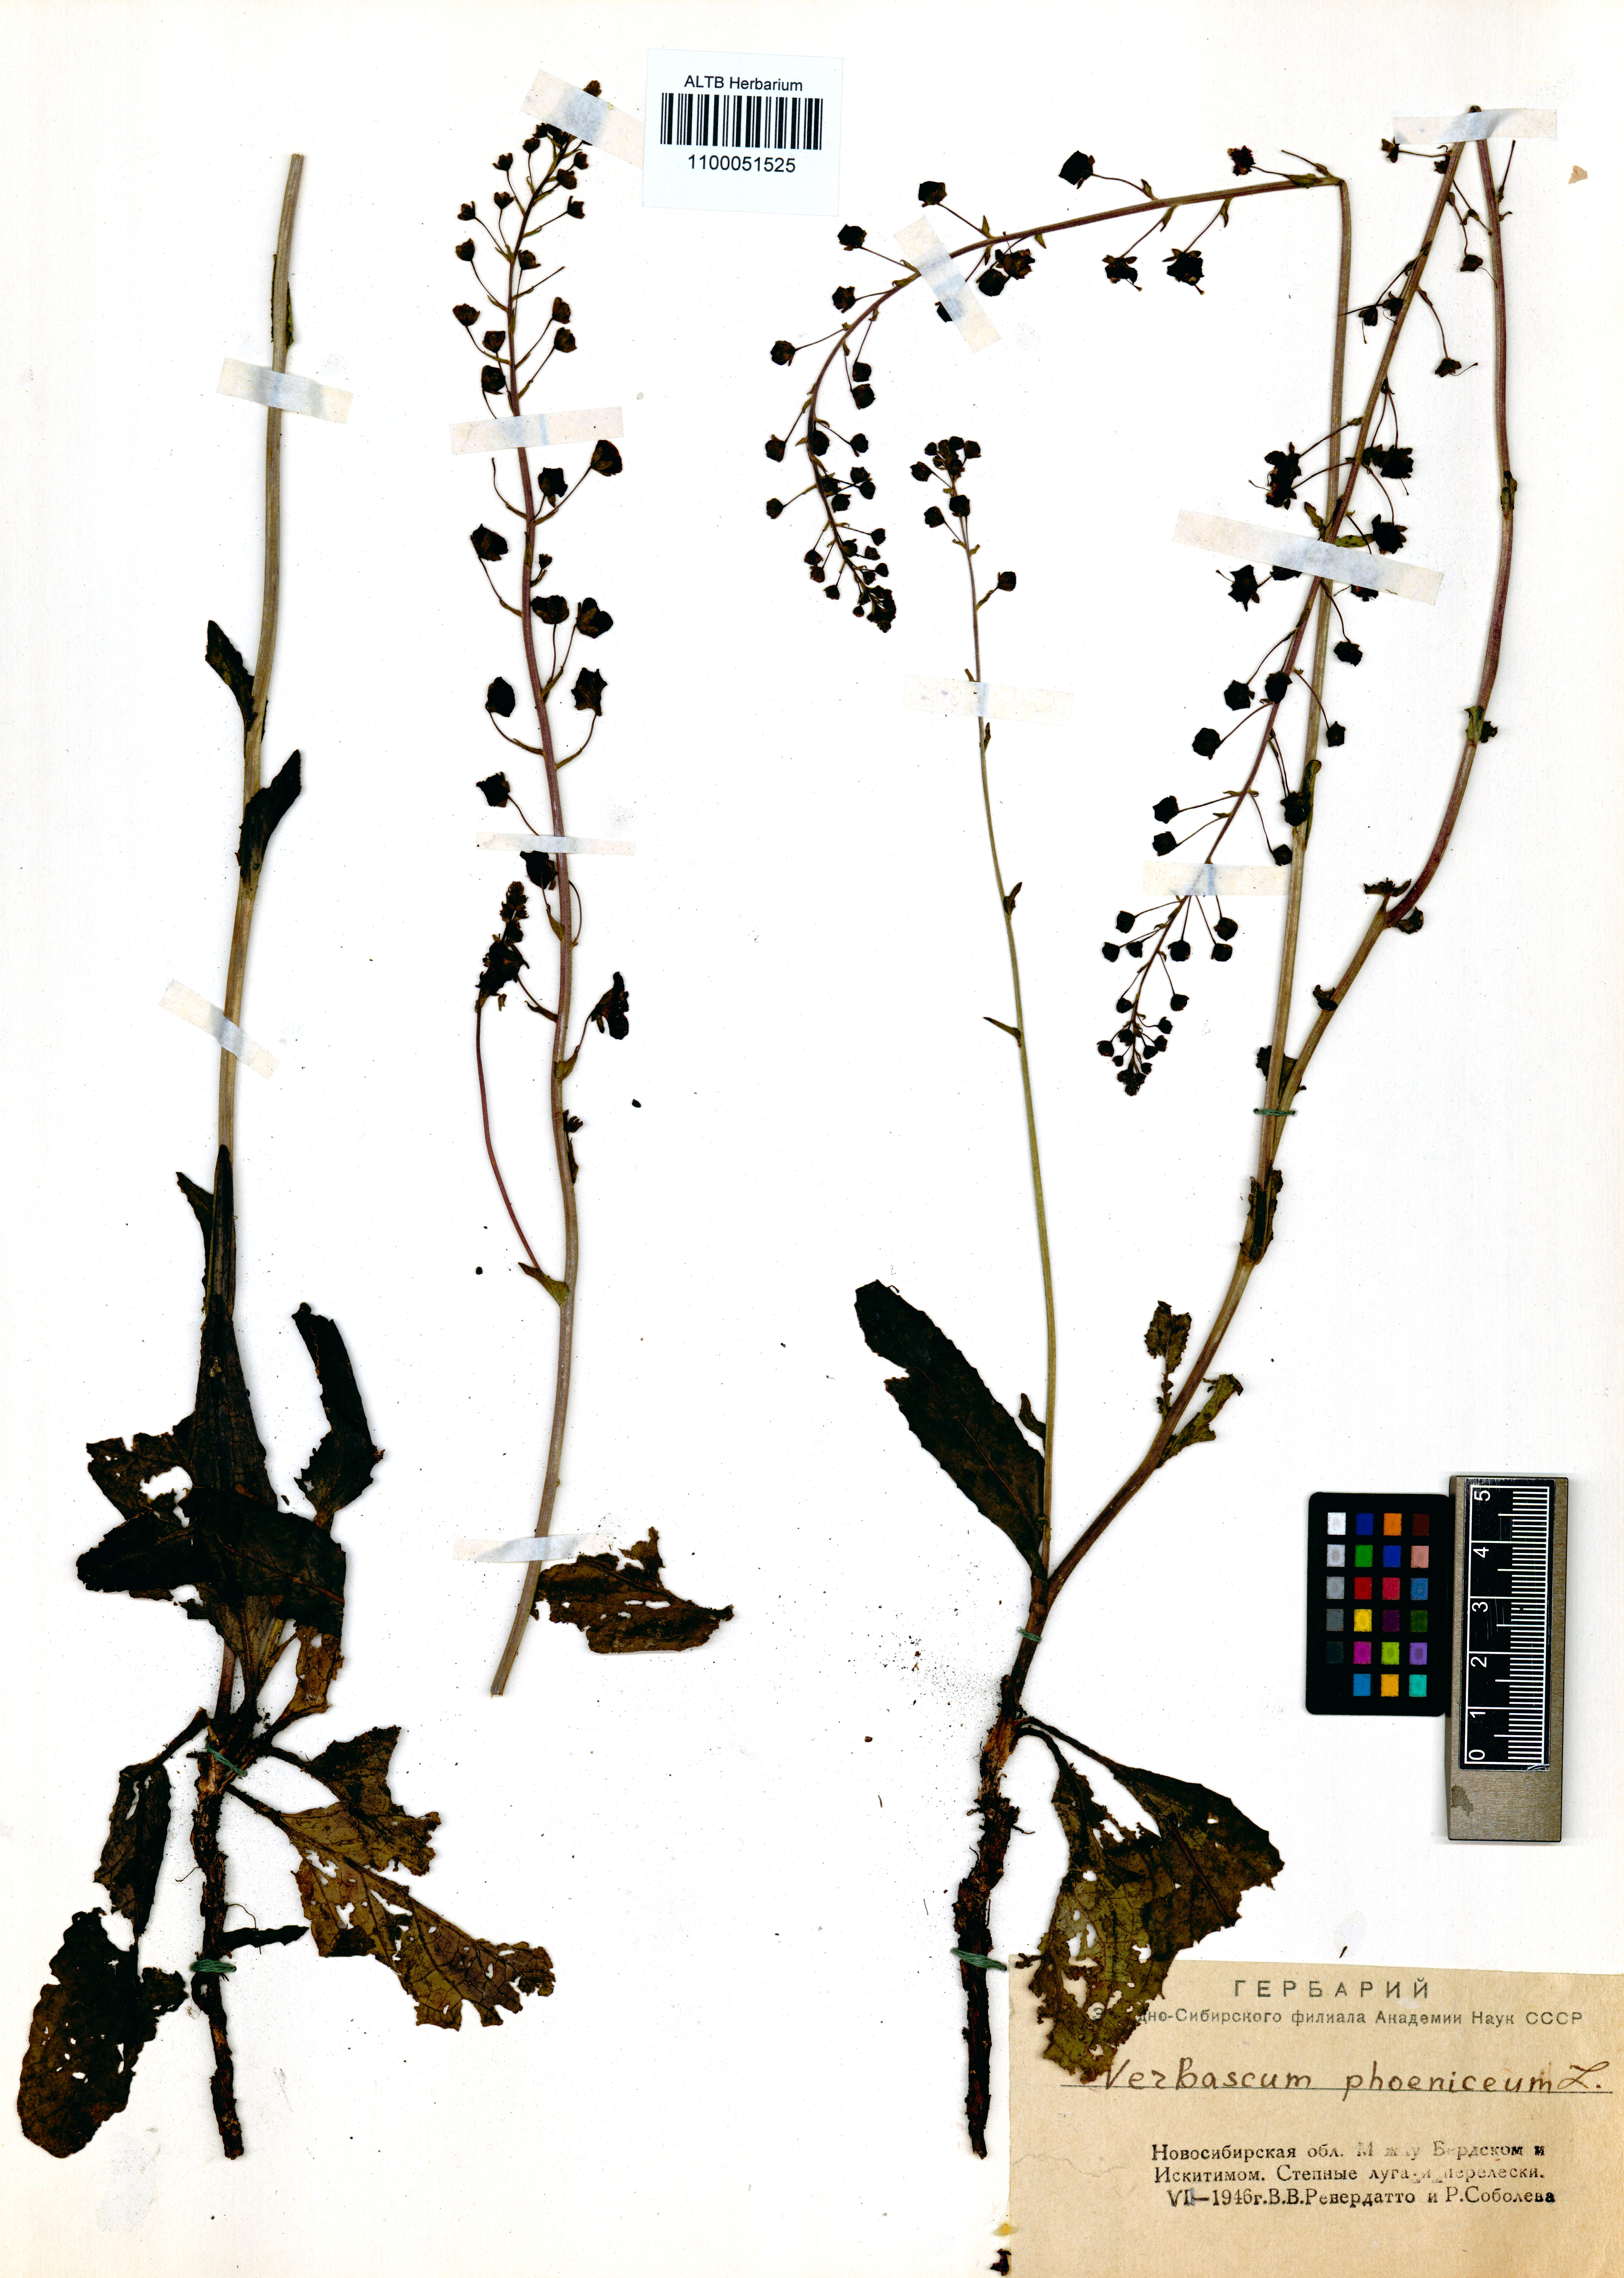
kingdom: Plantae
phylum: Tracheophyta
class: Magnoliopsida
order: Lamiales
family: Scrophulariaceae
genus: Verbascum
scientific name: Verbascum phoeniceum
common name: Purple mullein
